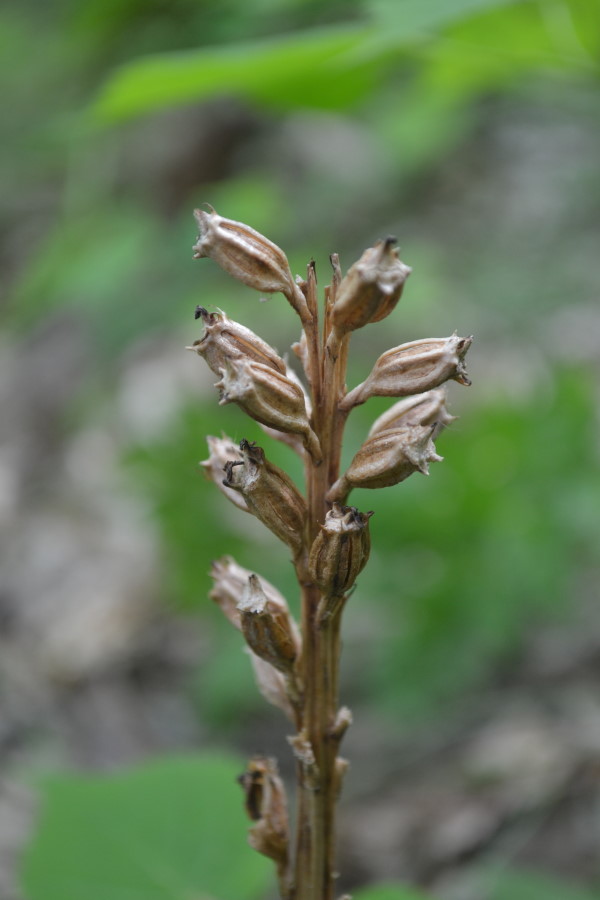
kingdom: Plantae
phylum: Tracheophyta
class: Liliopsida
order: Asparagales
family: Orchidaceae
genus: Neottia
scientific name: Neottia
